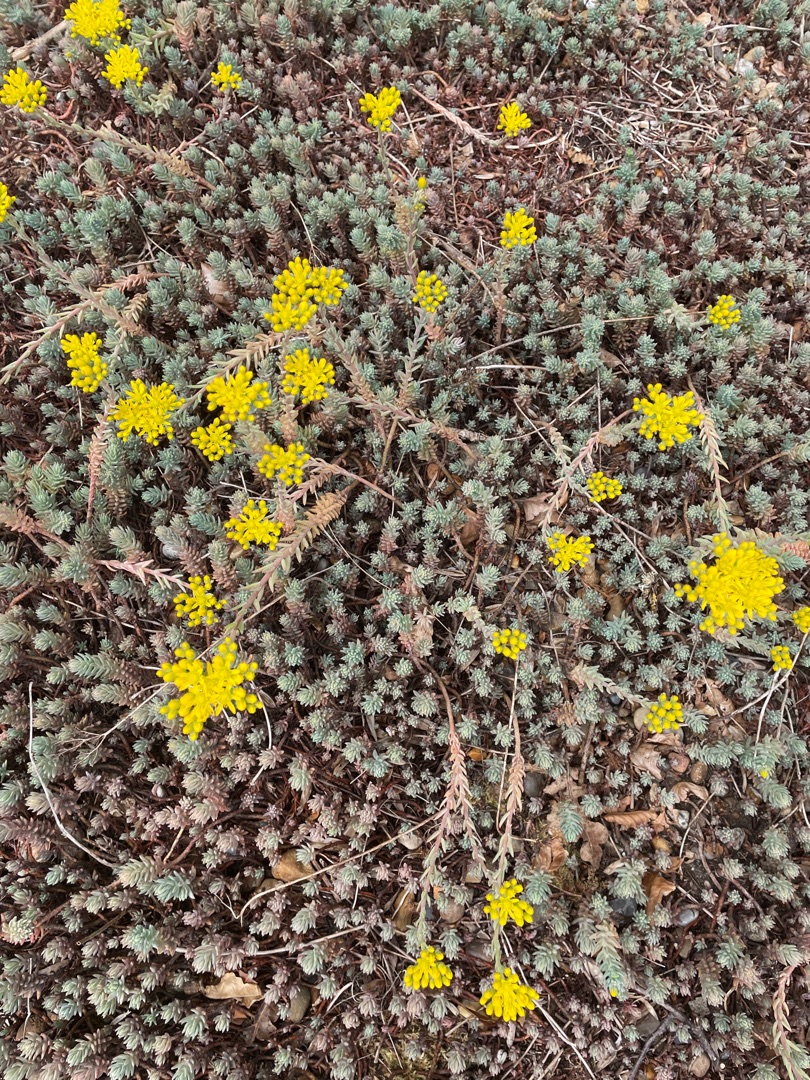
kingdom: Plantae
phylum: Tracheophyta
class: Magnoliopsida
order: Saxifragales
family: Crassulaceae
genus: Petrosedum
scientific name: Petrosedum rupestre
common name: Bjerg-stenurt
